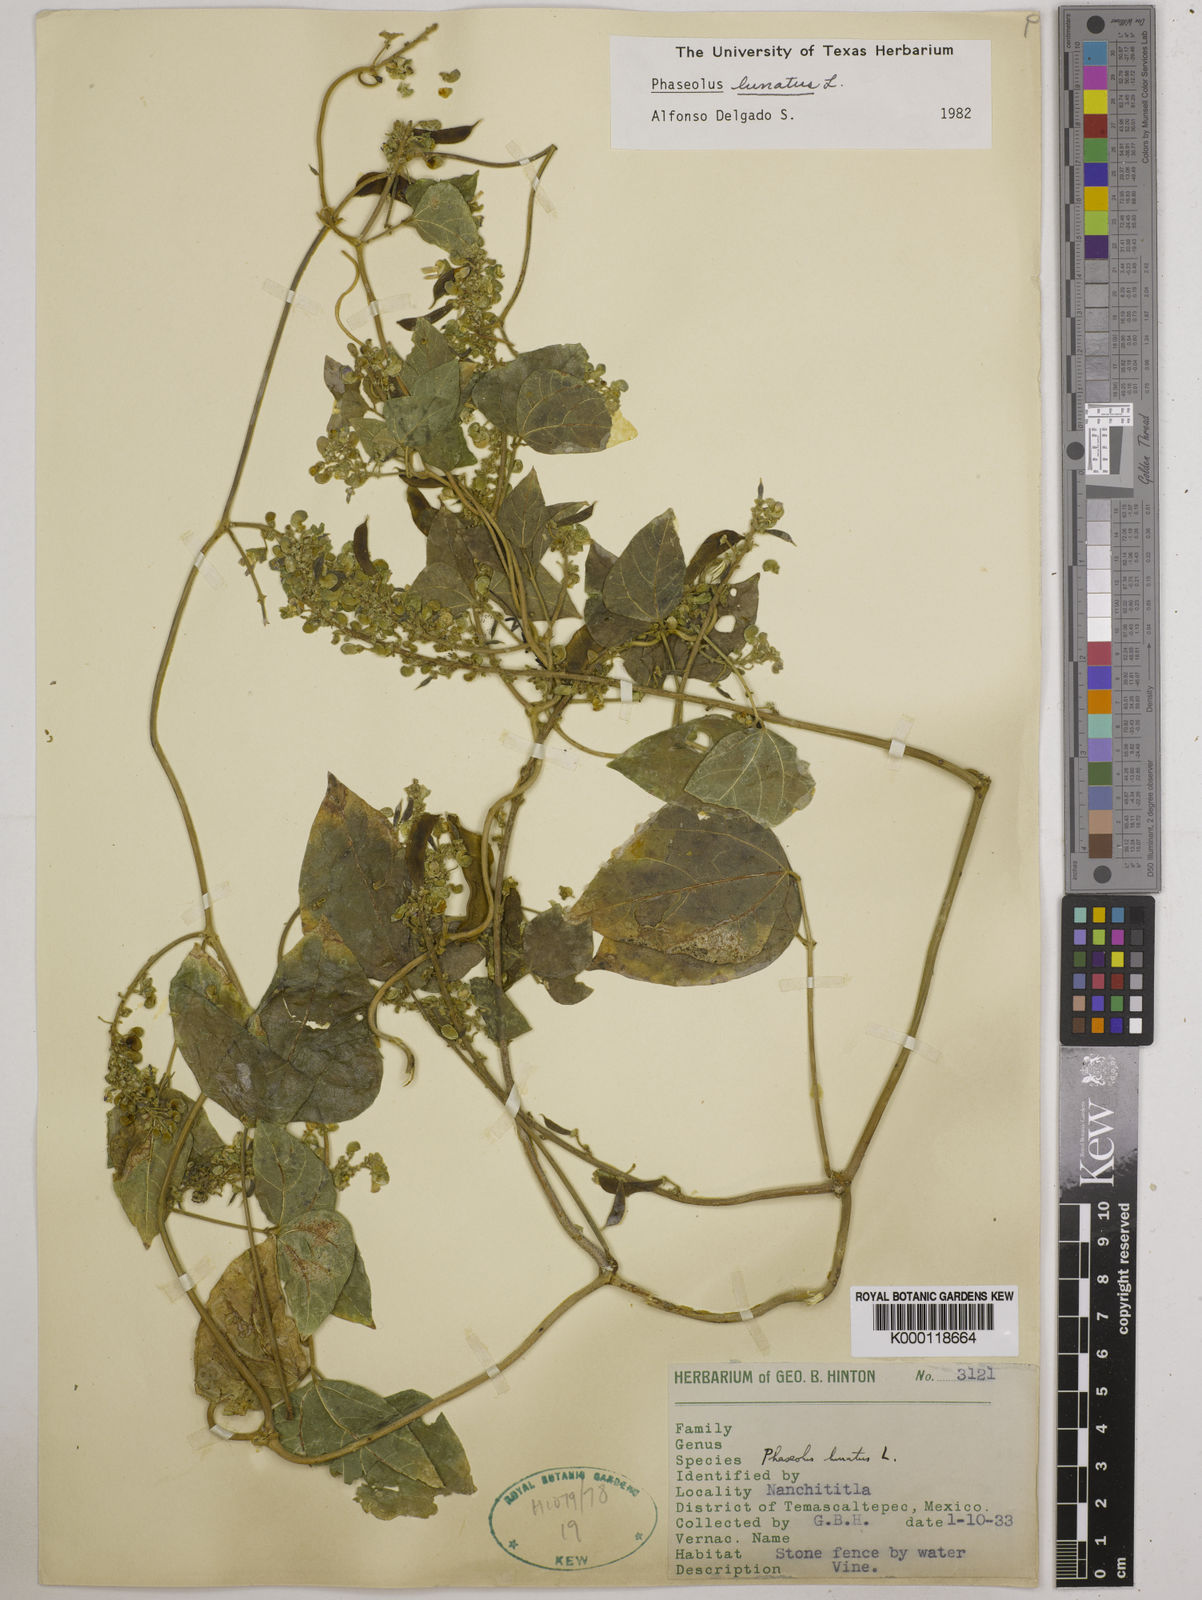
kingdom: Plantae
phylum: Tracheophyta
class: Magnoliopsida
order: Fabales
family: Fabaceae
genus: Phaseolus
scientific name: Phaseolus lunatus
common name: Sieva bean
